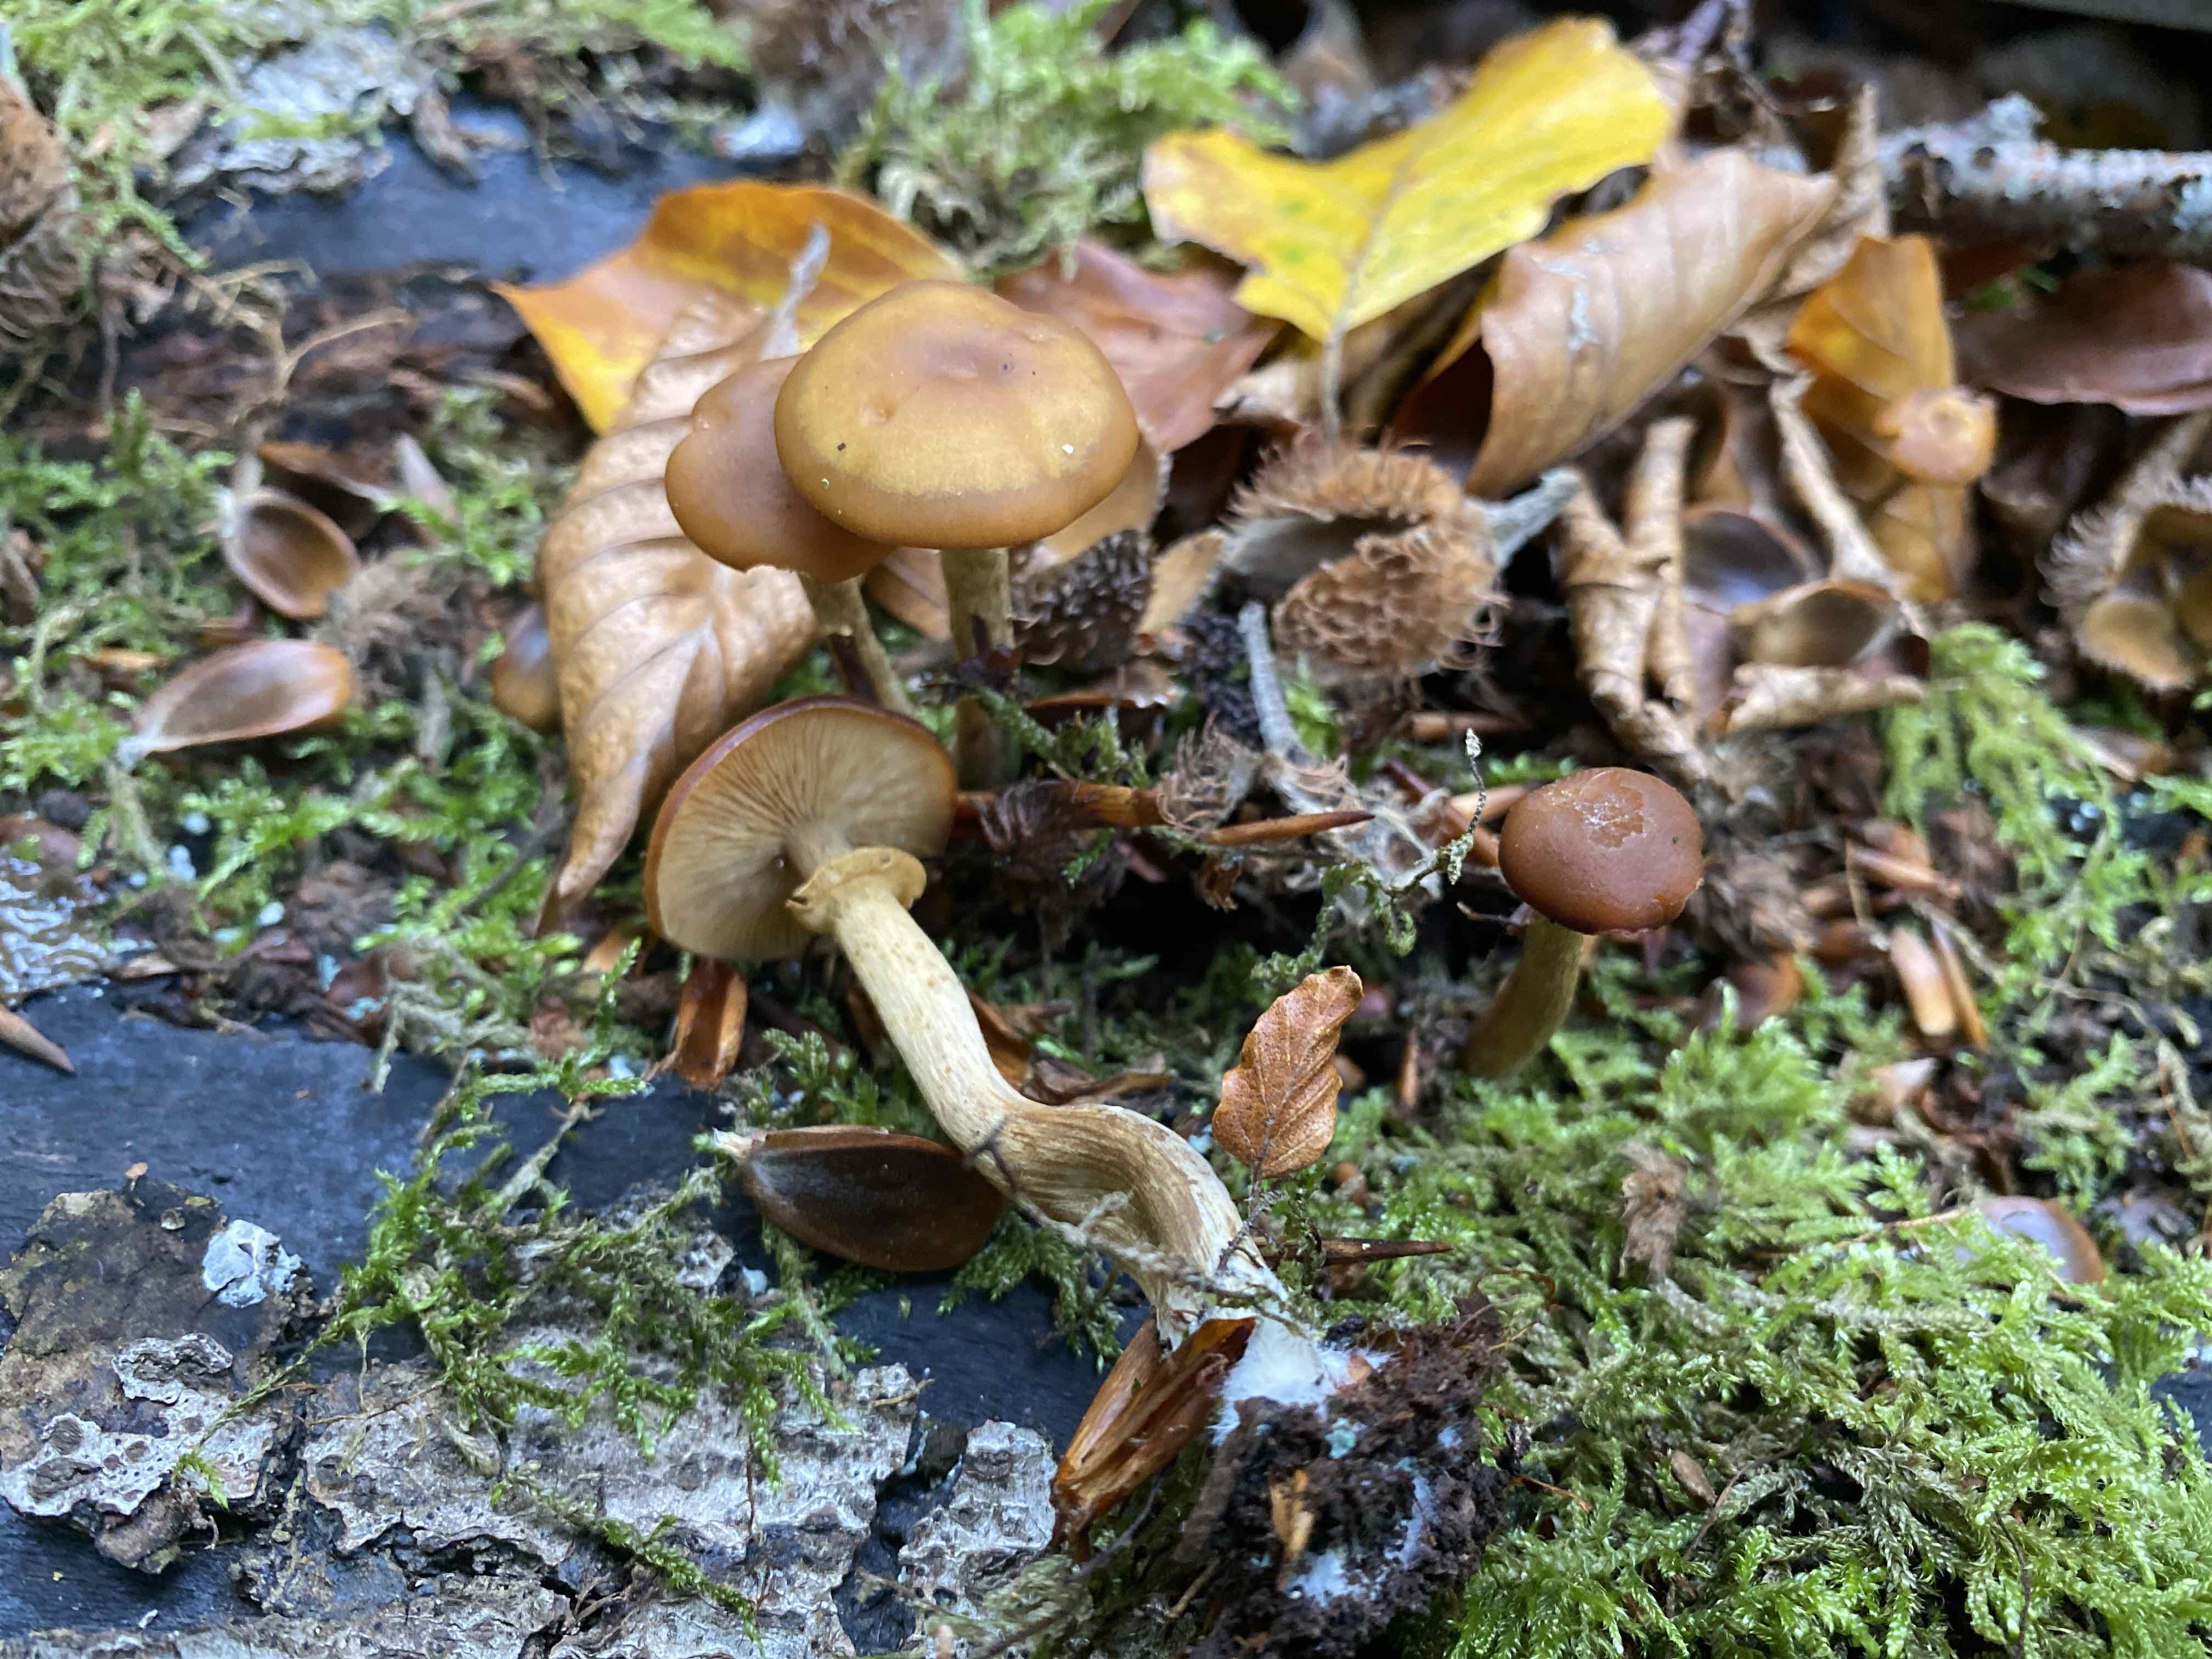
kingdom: Fungi
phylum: Basidiomycota
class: Agaricomycetes
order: Agaricales
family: Hymenogastraceae
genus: Galerina
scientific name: Galerina marginata
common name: randbæltet hjelmhat
